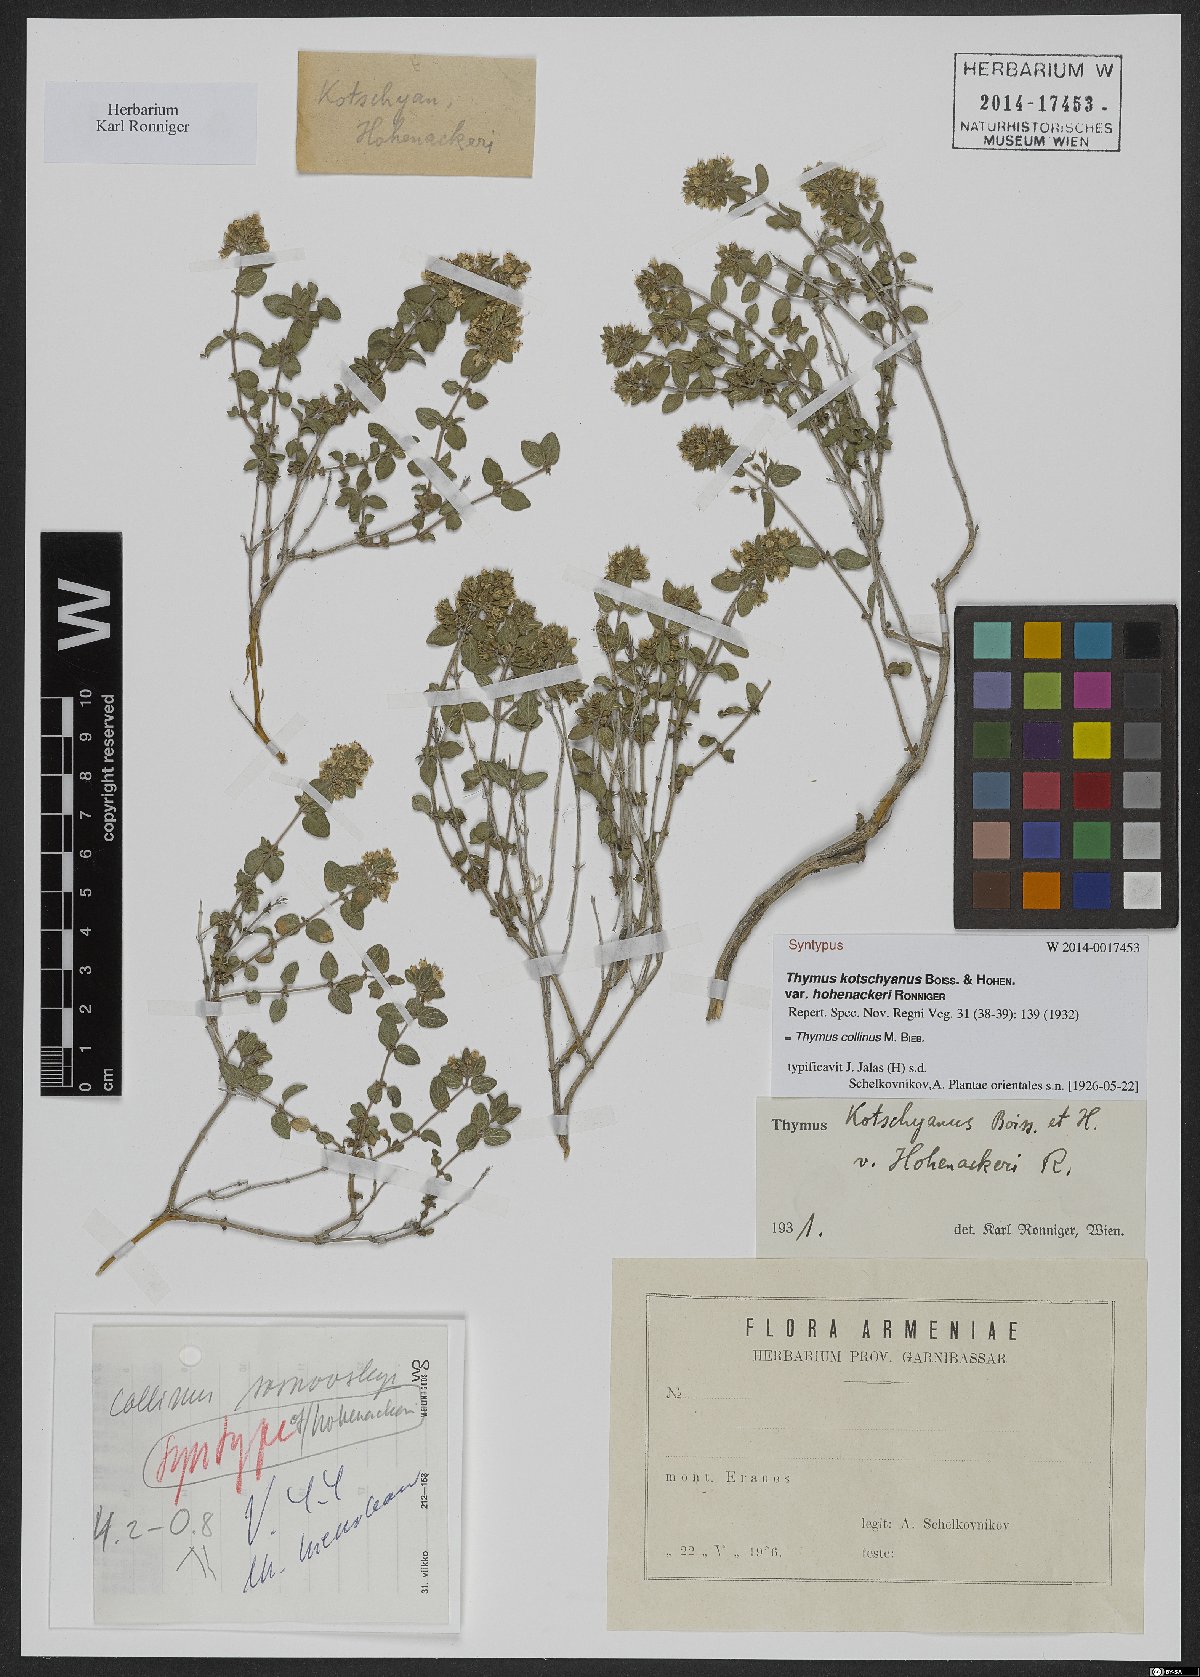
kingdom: Plantae
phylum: Tracheophyta
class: Magnoliopsida
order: Lamiales
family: Lamiaceae
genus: Thymus
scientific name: Thymus collinus
